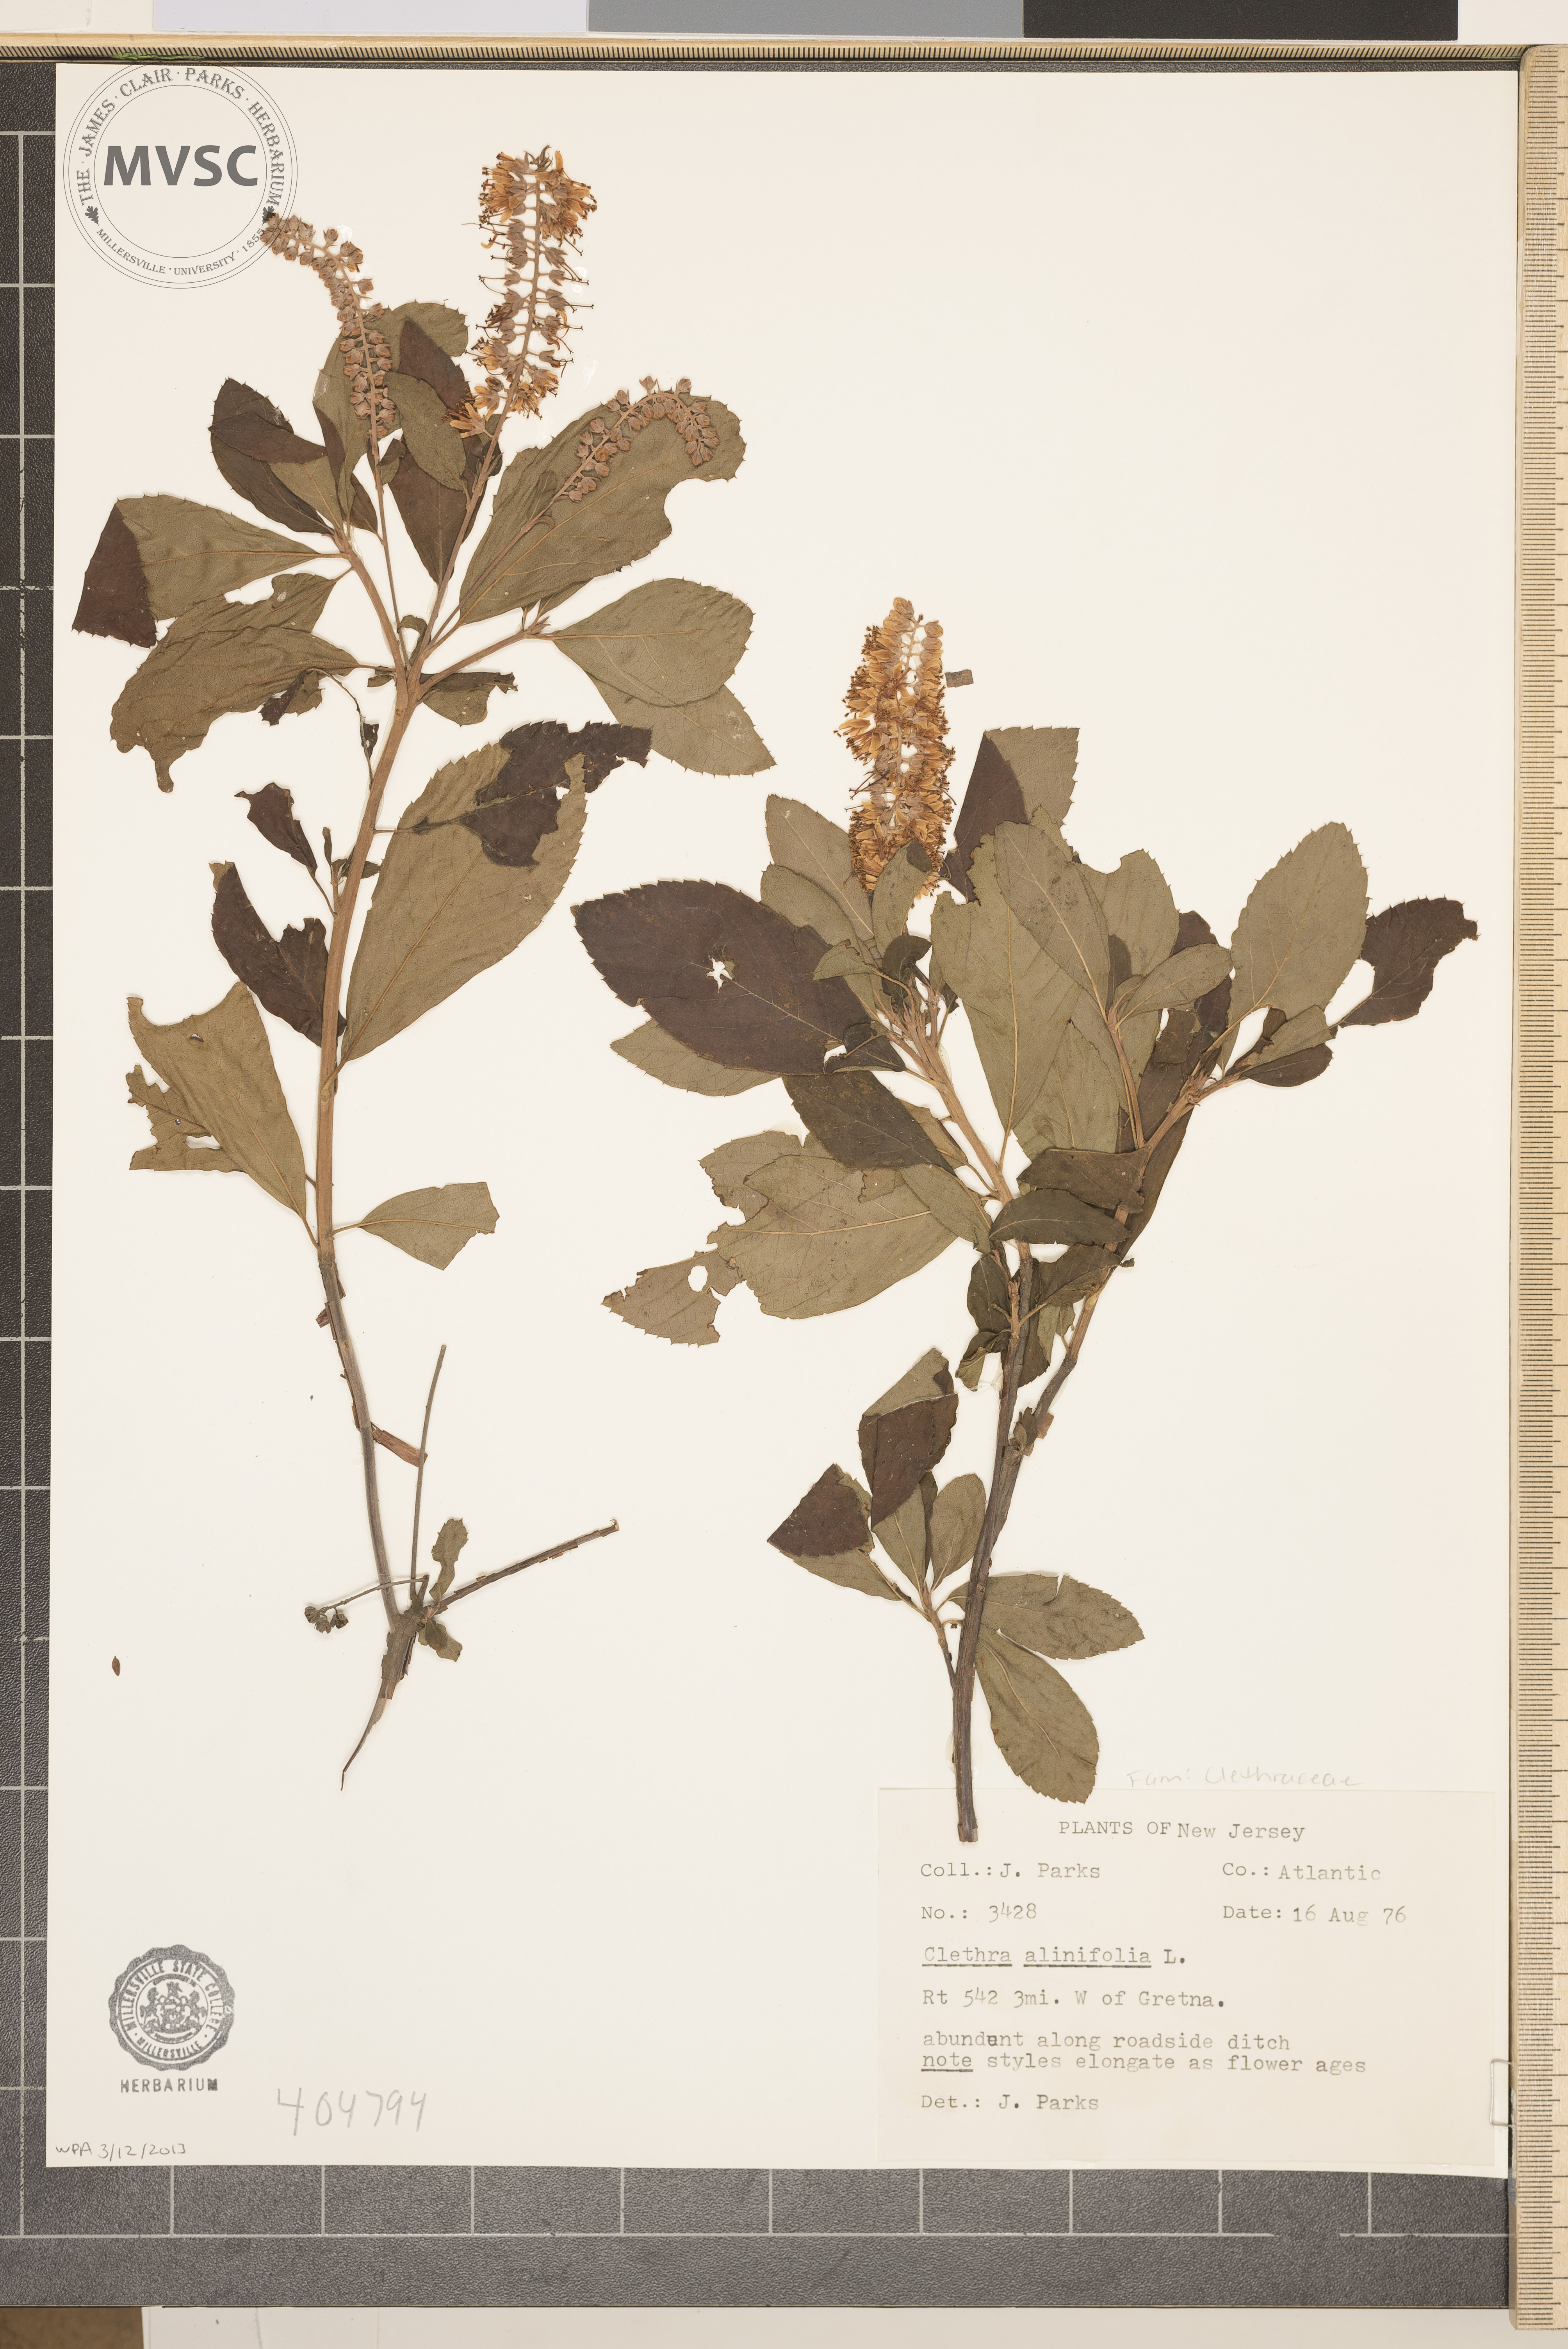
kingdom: Plantae
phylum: Tracheophyta
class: Magnoliopsida
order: Ericales
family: Clethraceae
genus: Clethra
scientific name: Clethra alnifolia
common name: Sweet pepperbush
